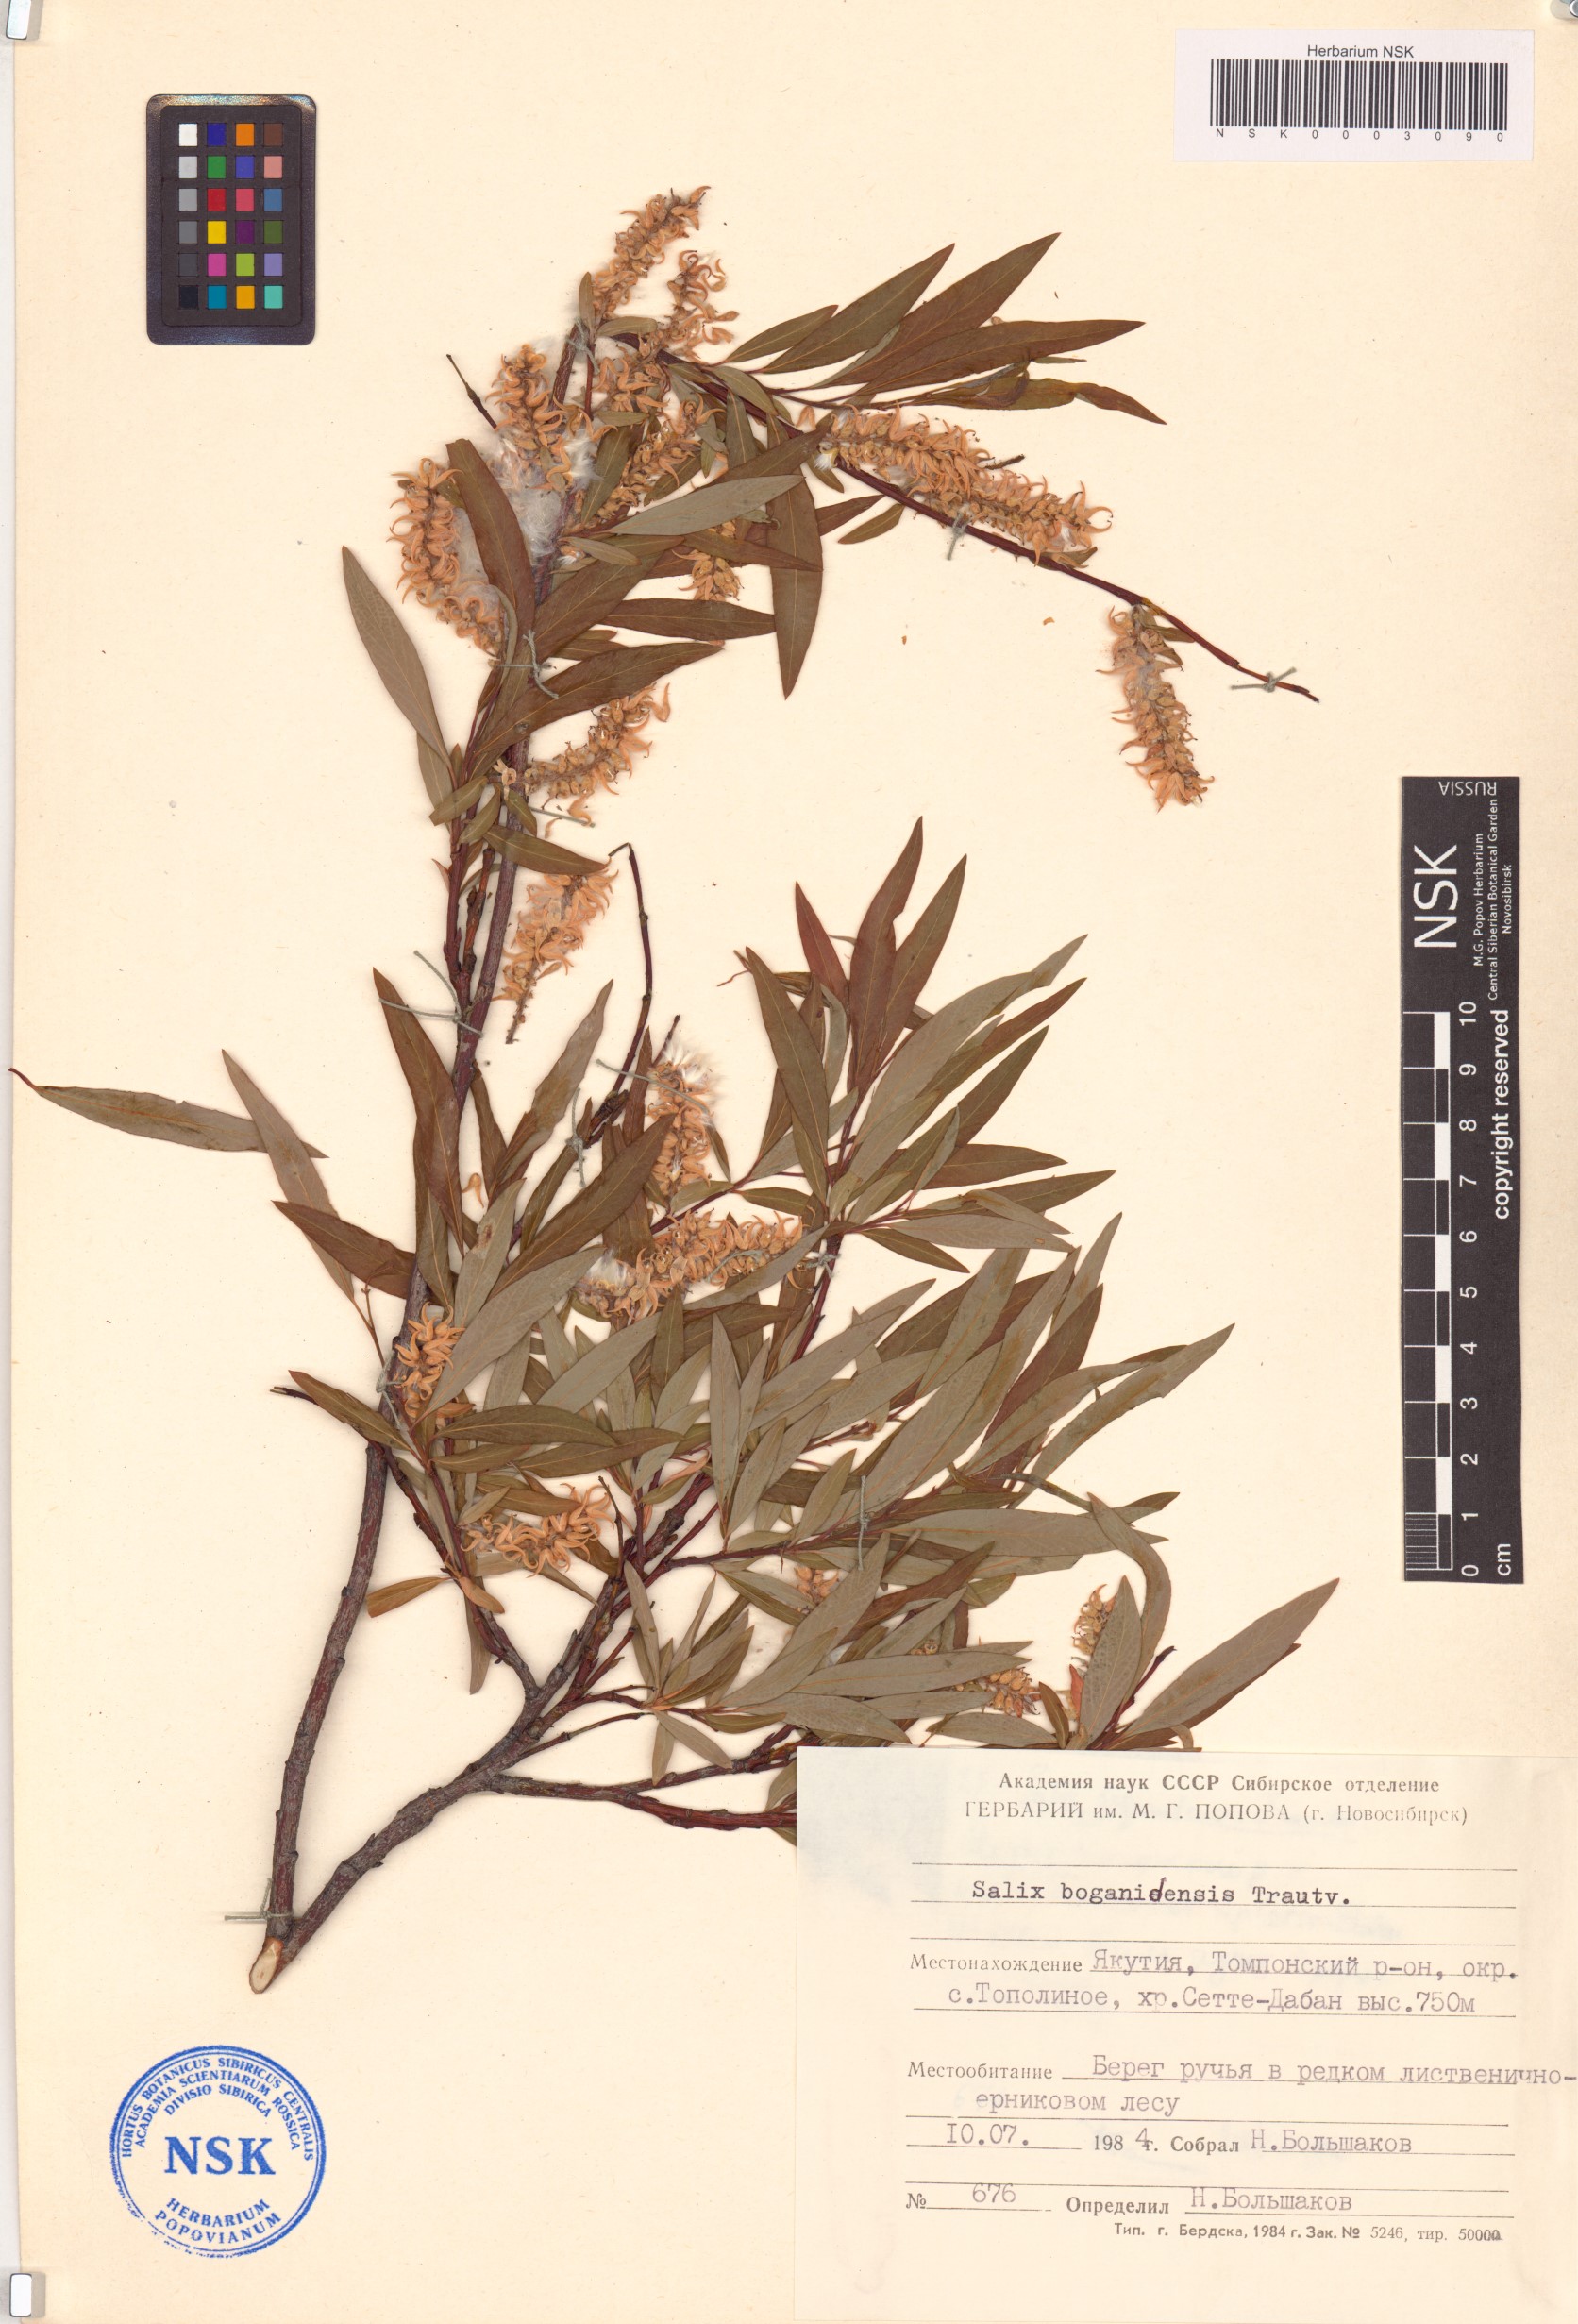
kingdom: Plantae
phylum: Tracheophyta
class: Magnoliopsida
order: Malpighiales
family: Salicaceae
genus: Salix
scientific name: Salix boganidensis
